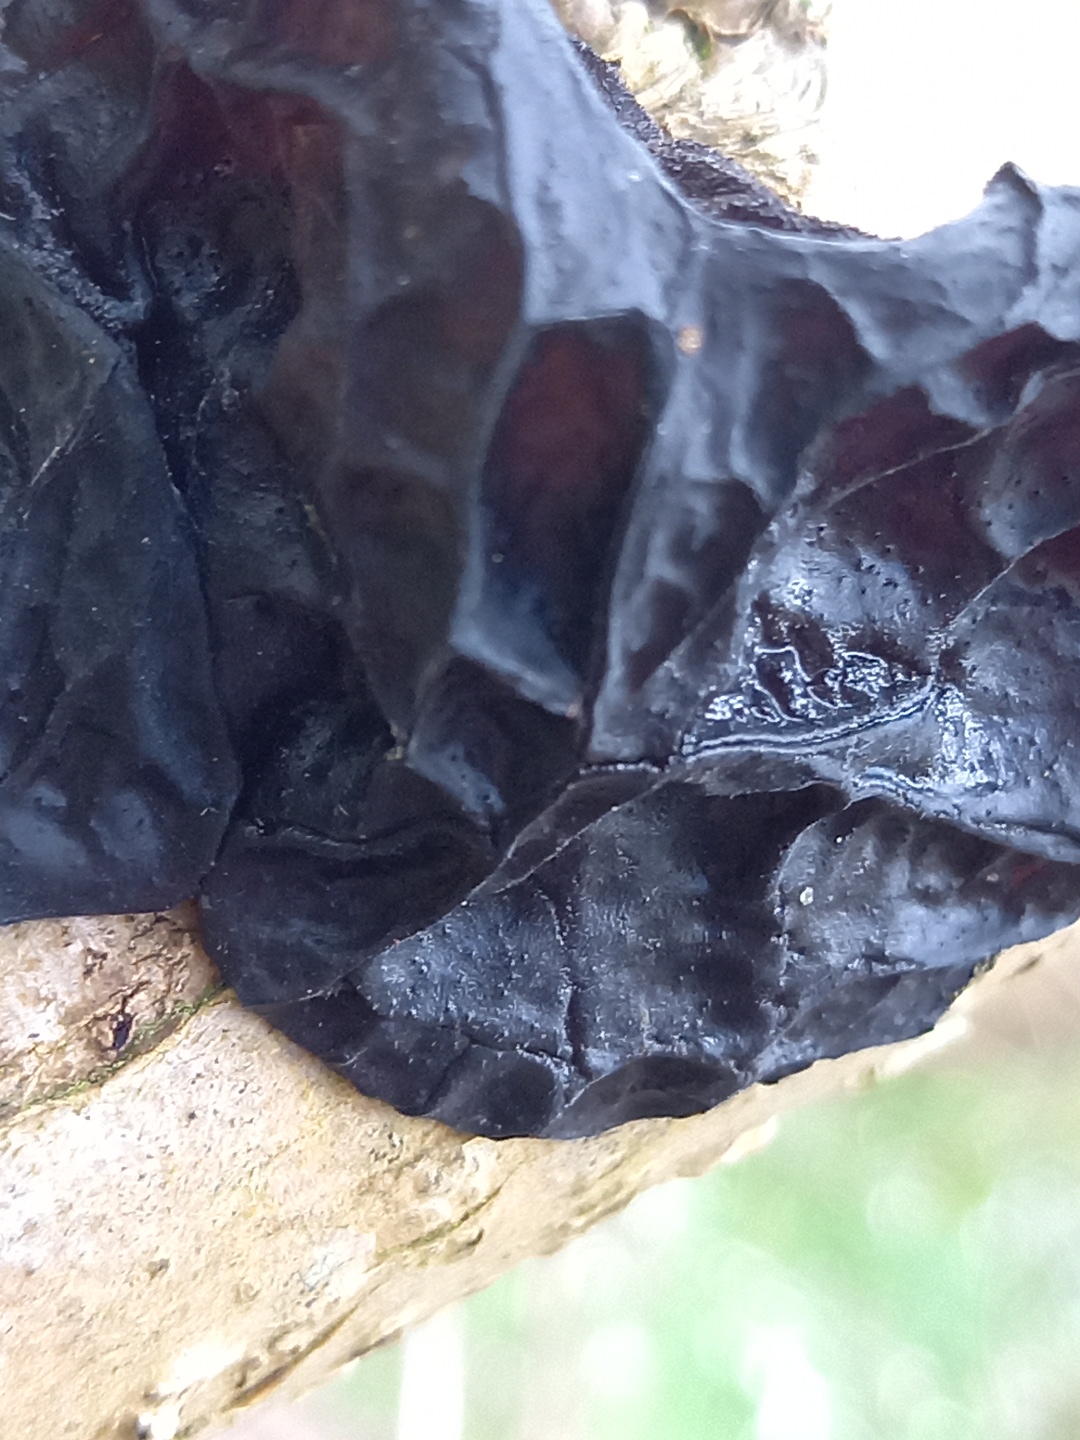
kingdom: Fungi
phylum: Basidiomycota
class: Agaricomycetes
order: Auriculariales
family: Auriculariaceae
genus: Exidia
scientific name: Exidia glandulosa
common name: ege-bævretop
